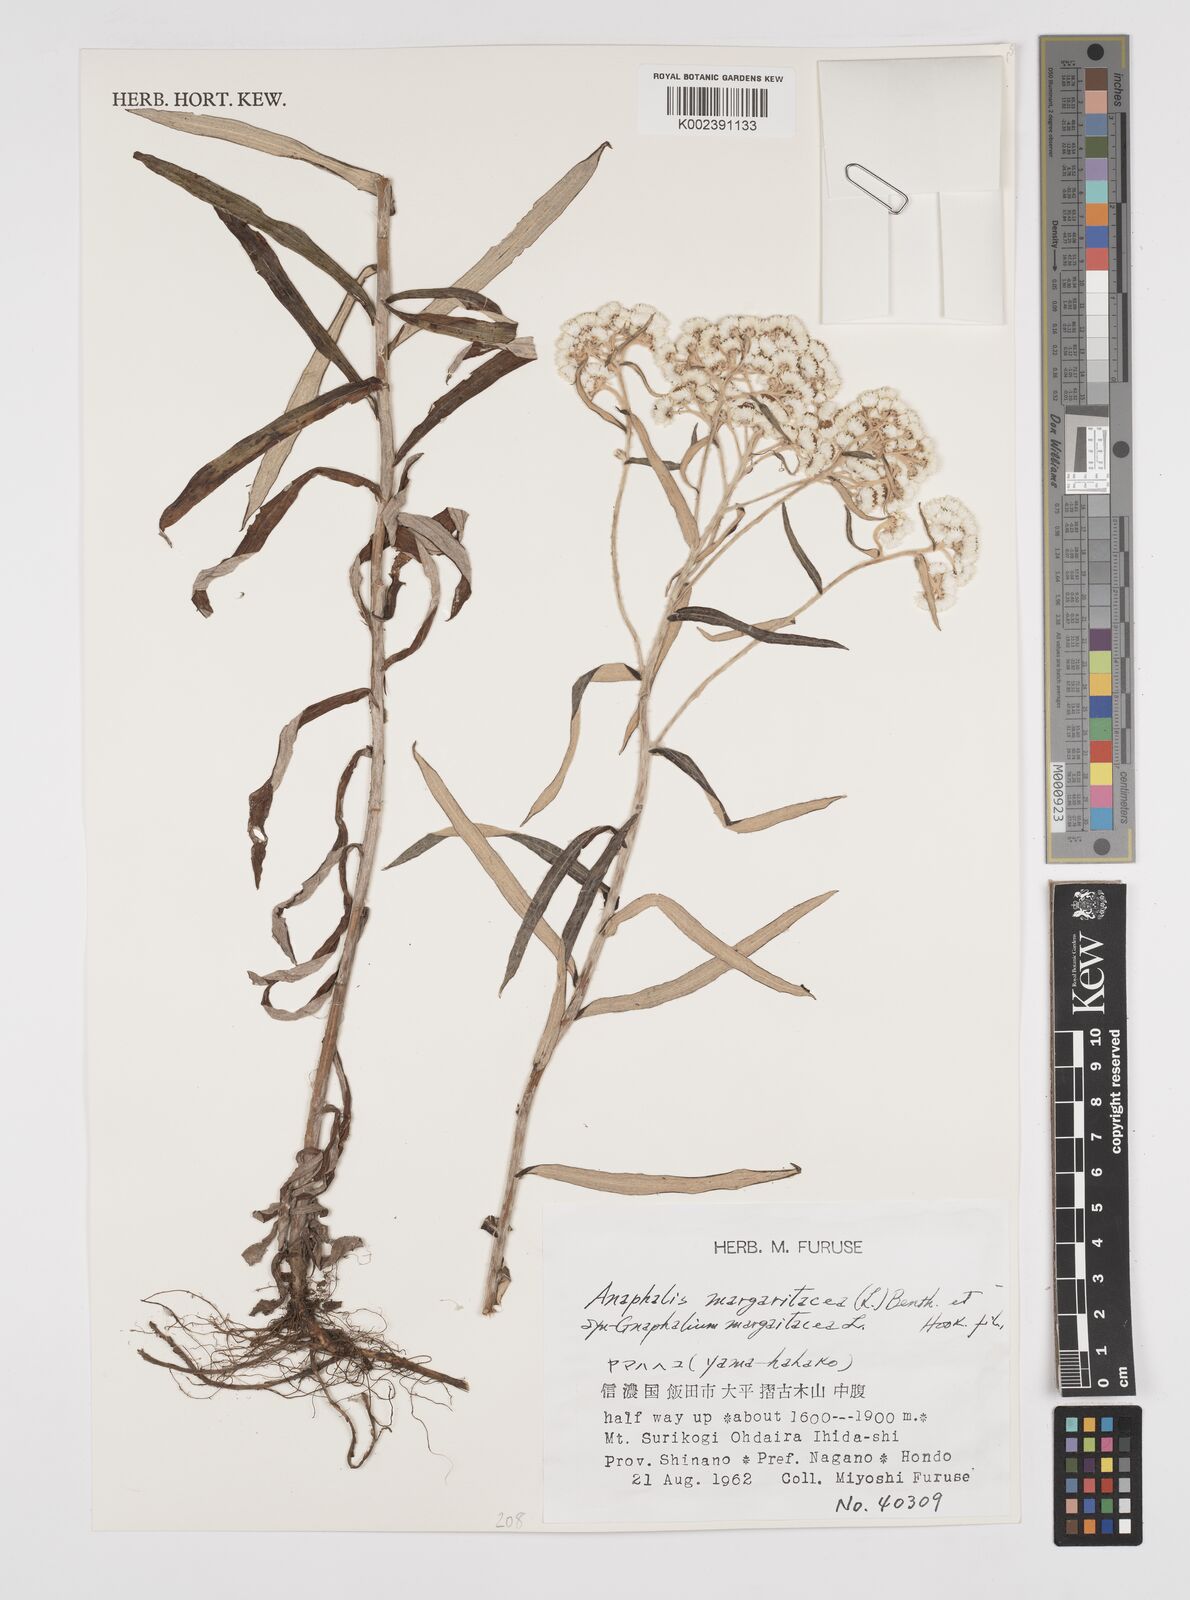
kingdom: Plantae
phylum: Tracheophyta
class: Magnoliopsida
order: Asterales
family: Asteraceae
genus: Anaphalis
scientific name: Anaphalis margaritacea
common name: Pearly everlasting
